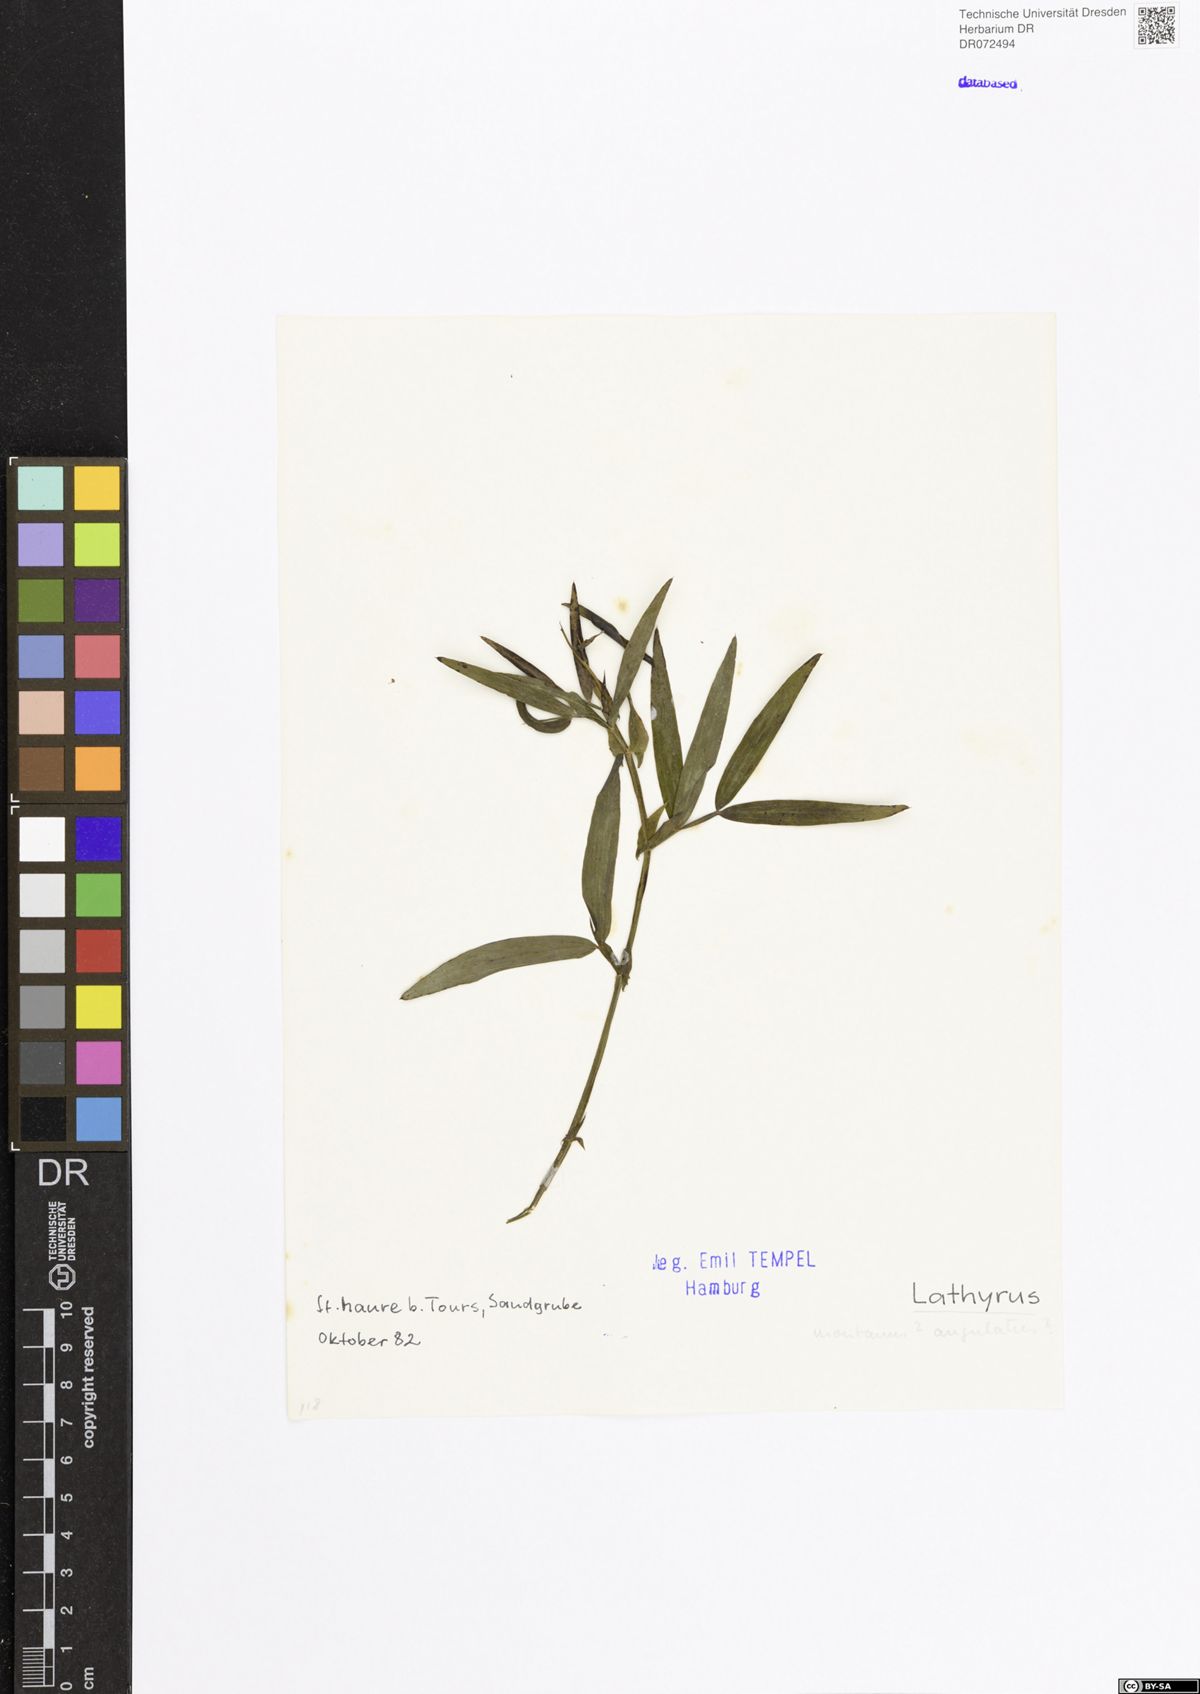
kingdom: Plantae
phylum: Tracheophyta
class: Magnoliopsida
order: Fabales
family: Fabaceae
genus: Lathyrus
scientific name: Lathyrus
